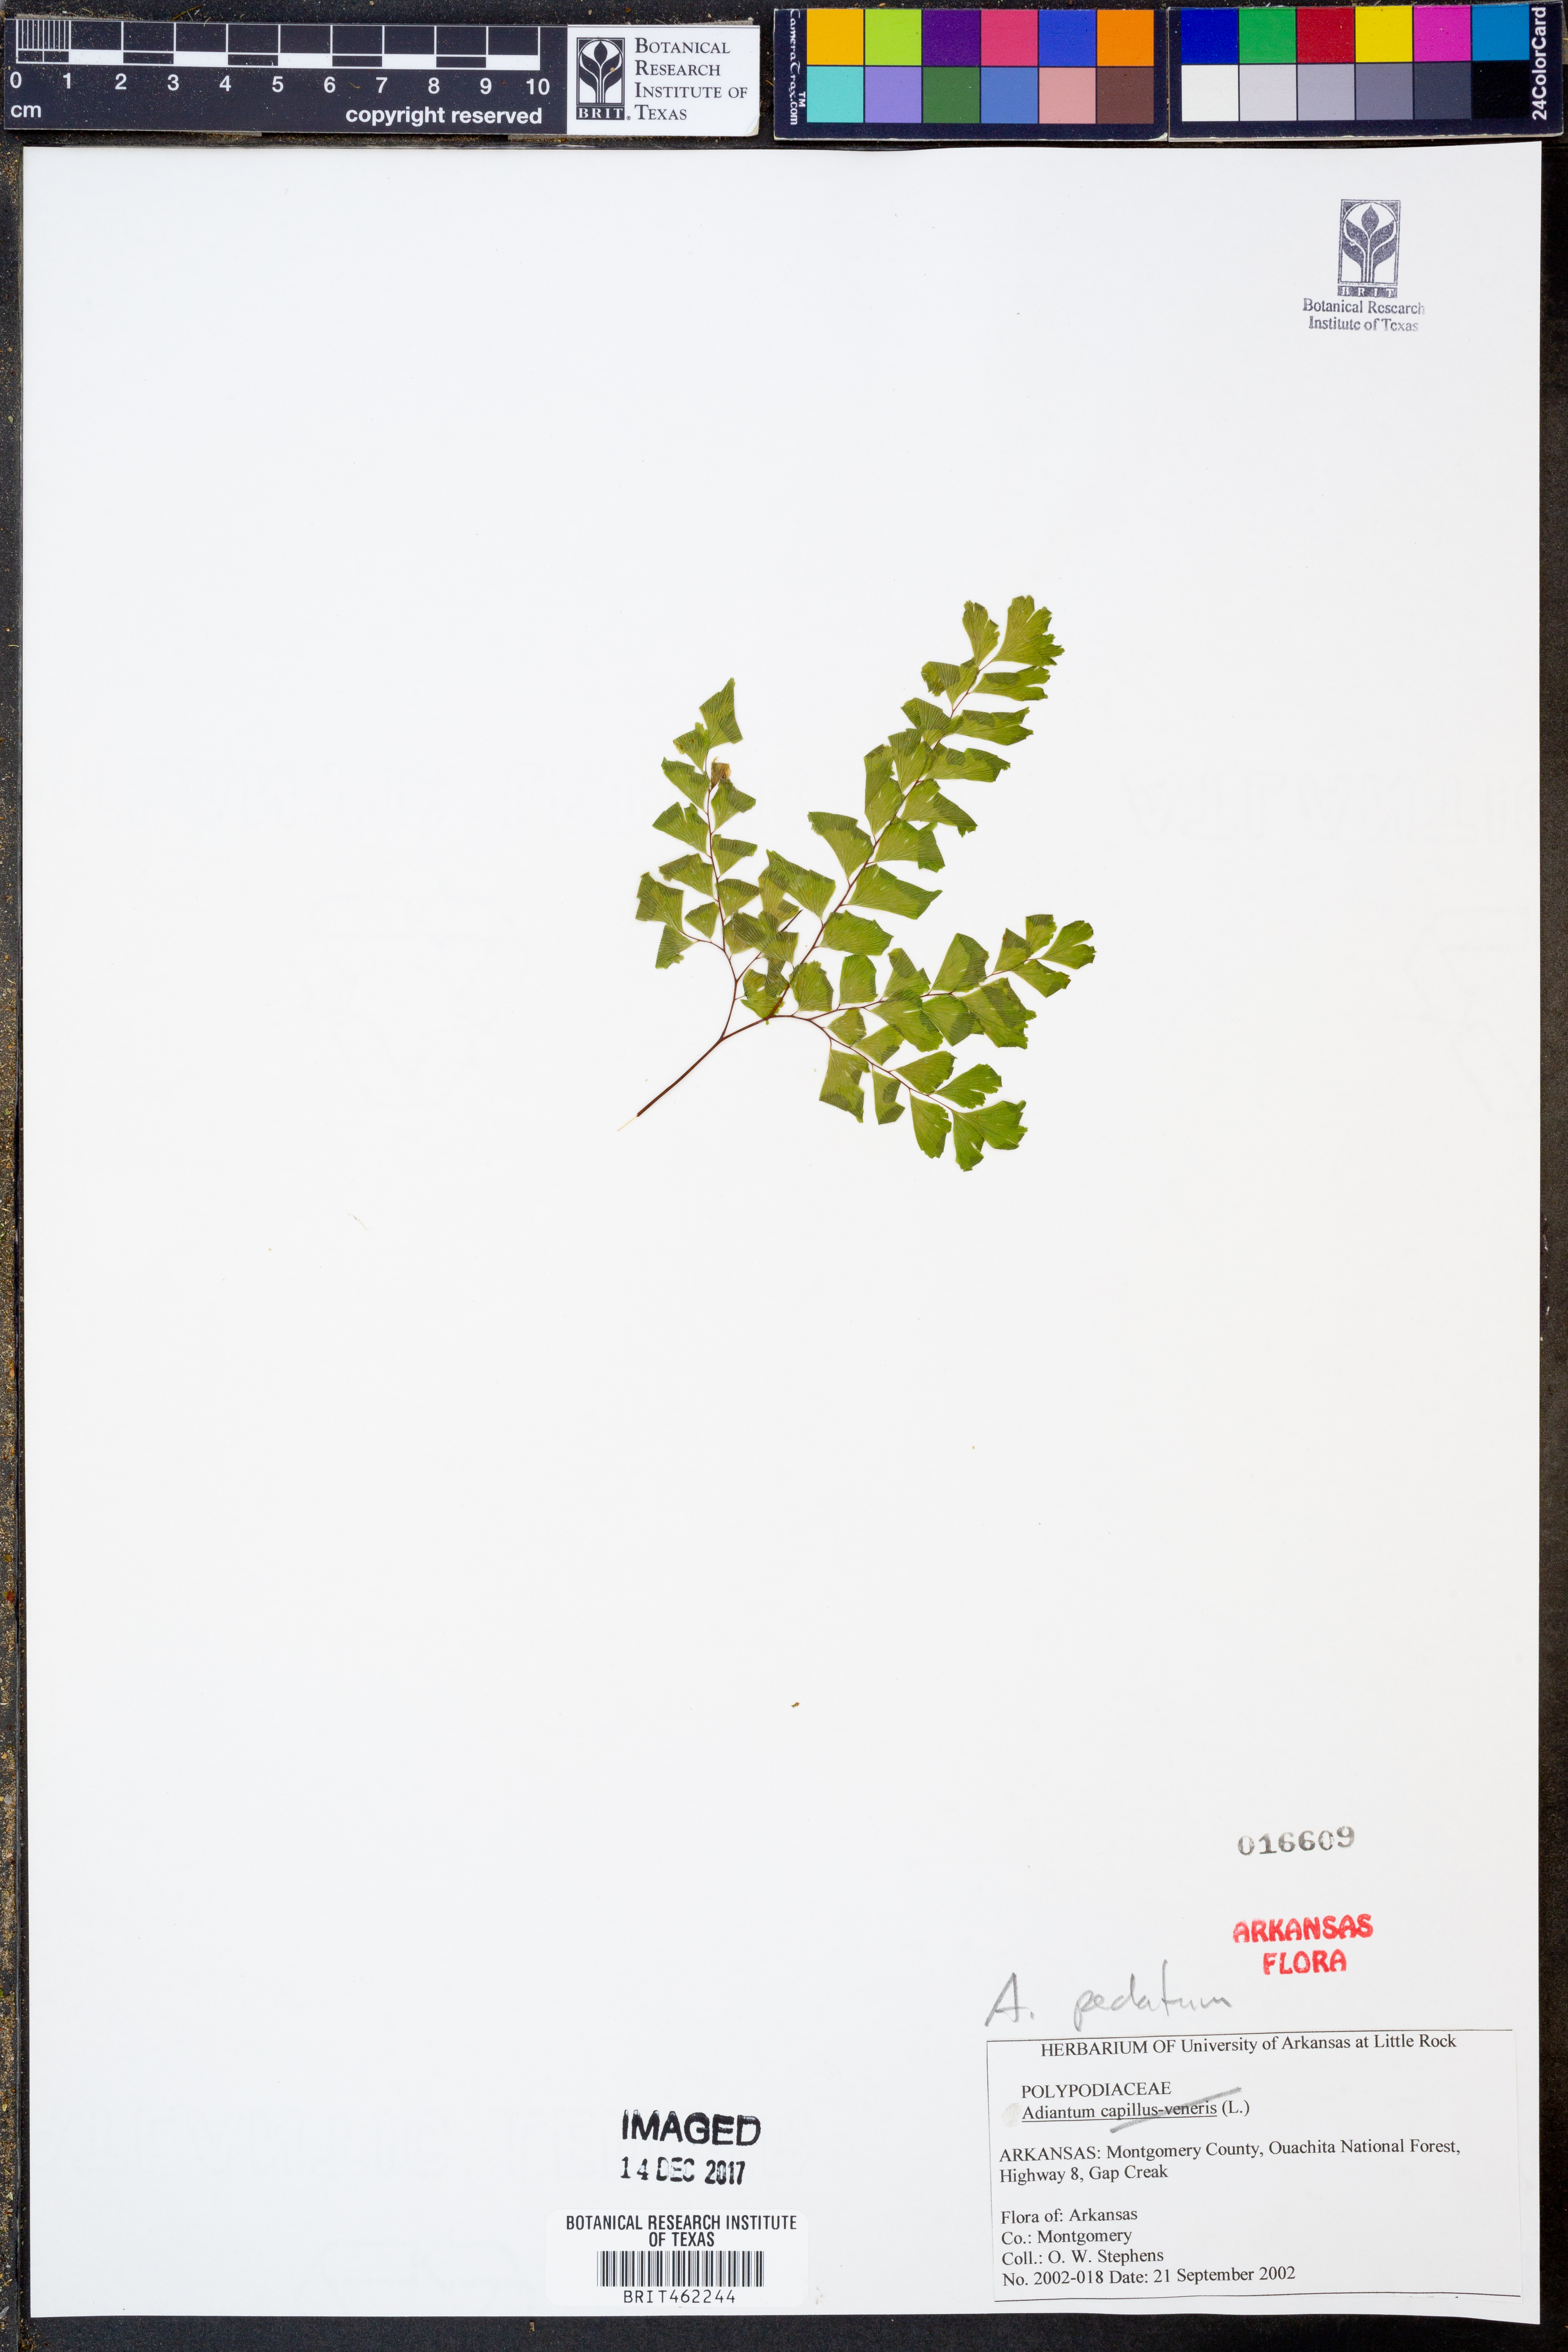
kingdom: Plantae
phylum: Tracheophyta
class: Polypodiopsida
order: Polypodiales
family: Pteridaceae
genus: Adiantum
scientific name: Adiantum pedatum
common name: Five-finger fern
